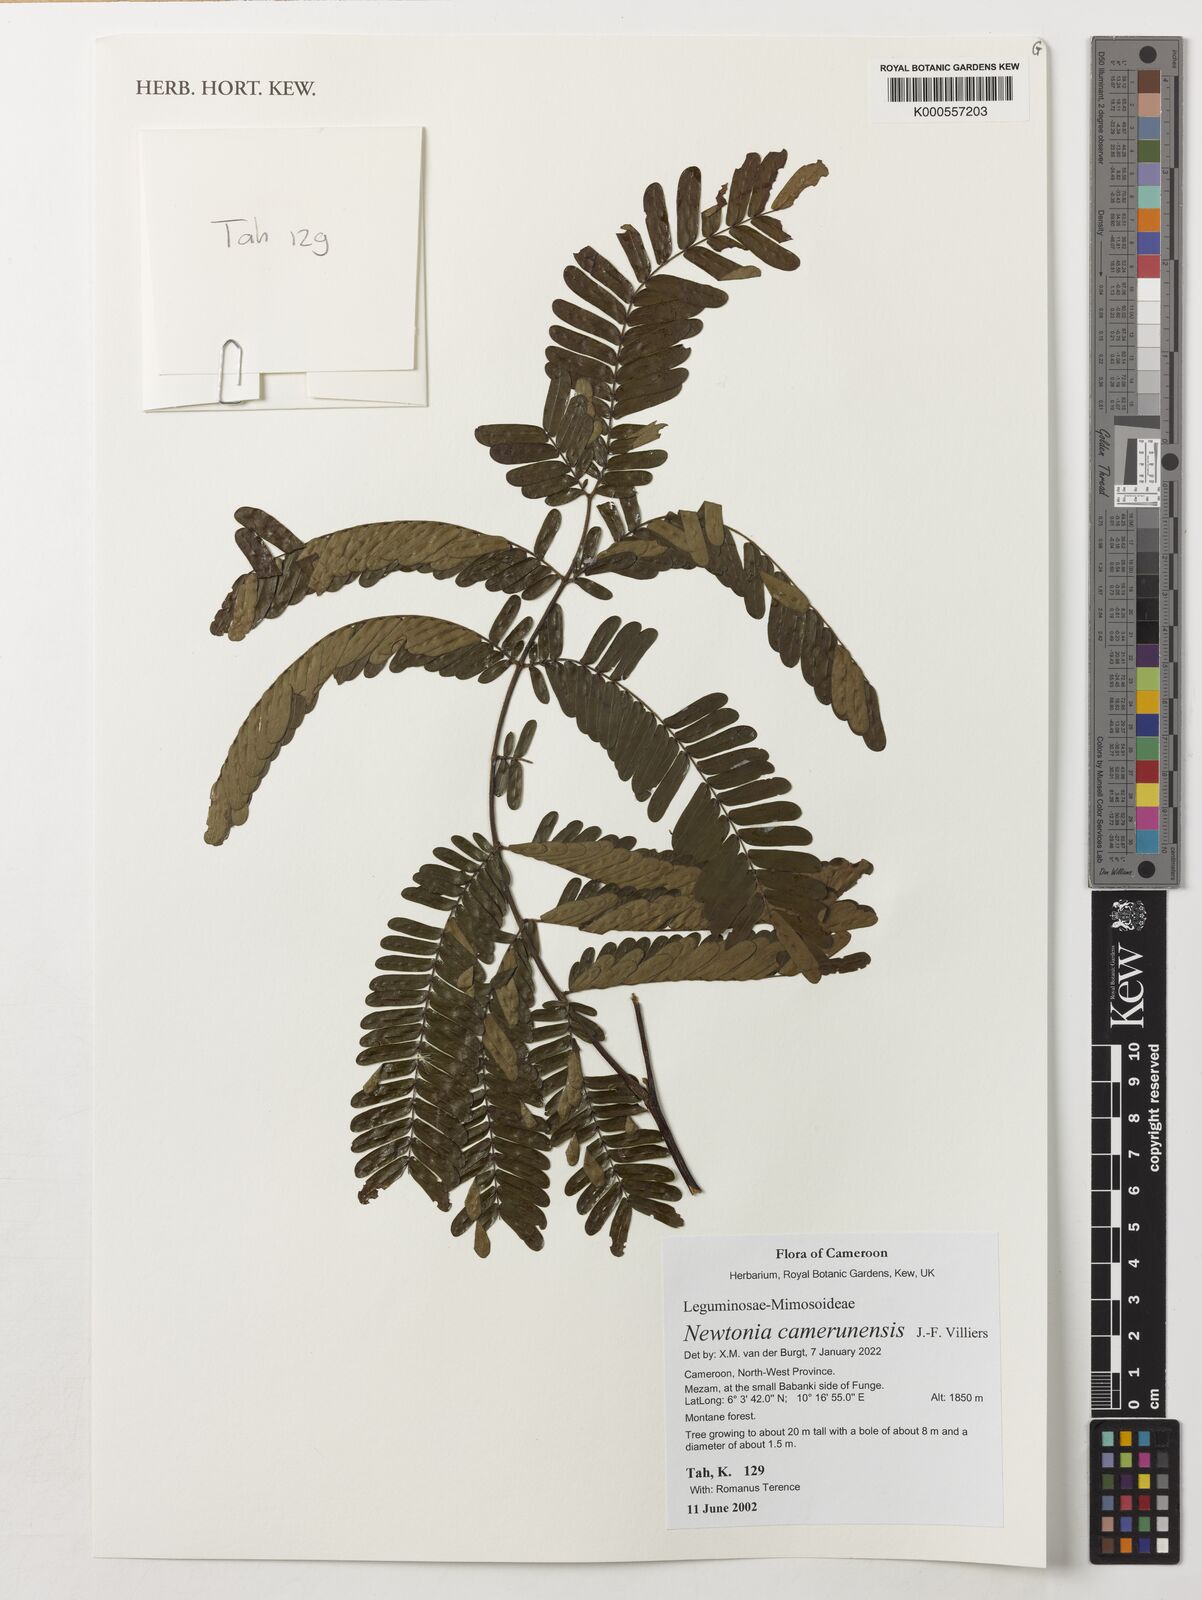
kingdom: Plantae
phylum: Tracheophyta
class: Magnoliopsida
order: Fabales
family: Fabaceae
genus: Newtonia
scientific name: Newtonia camerunensis
